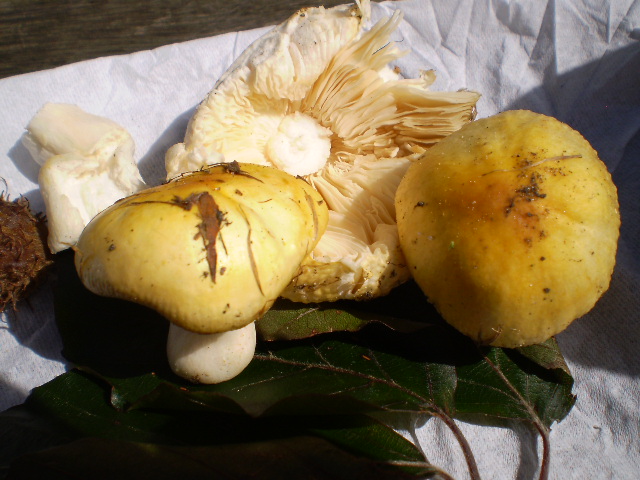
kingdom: Fungi
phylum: Basidiomycota
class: Agaricomycetes
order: Russulales
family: Russulaceae
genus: Russula
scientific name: Russula solaris
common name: sol-skørhat
